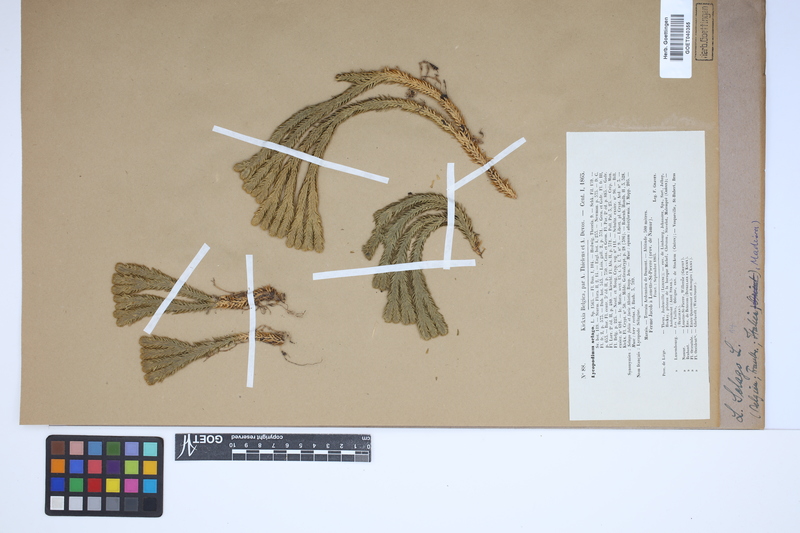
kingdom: Plantae
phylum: Tracheophyta
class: Lycopodiopsida
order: Lycopodiales
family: Lycopodiaceae
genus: Huperzia
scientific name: Huperzia selago
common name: Northern firmoss
